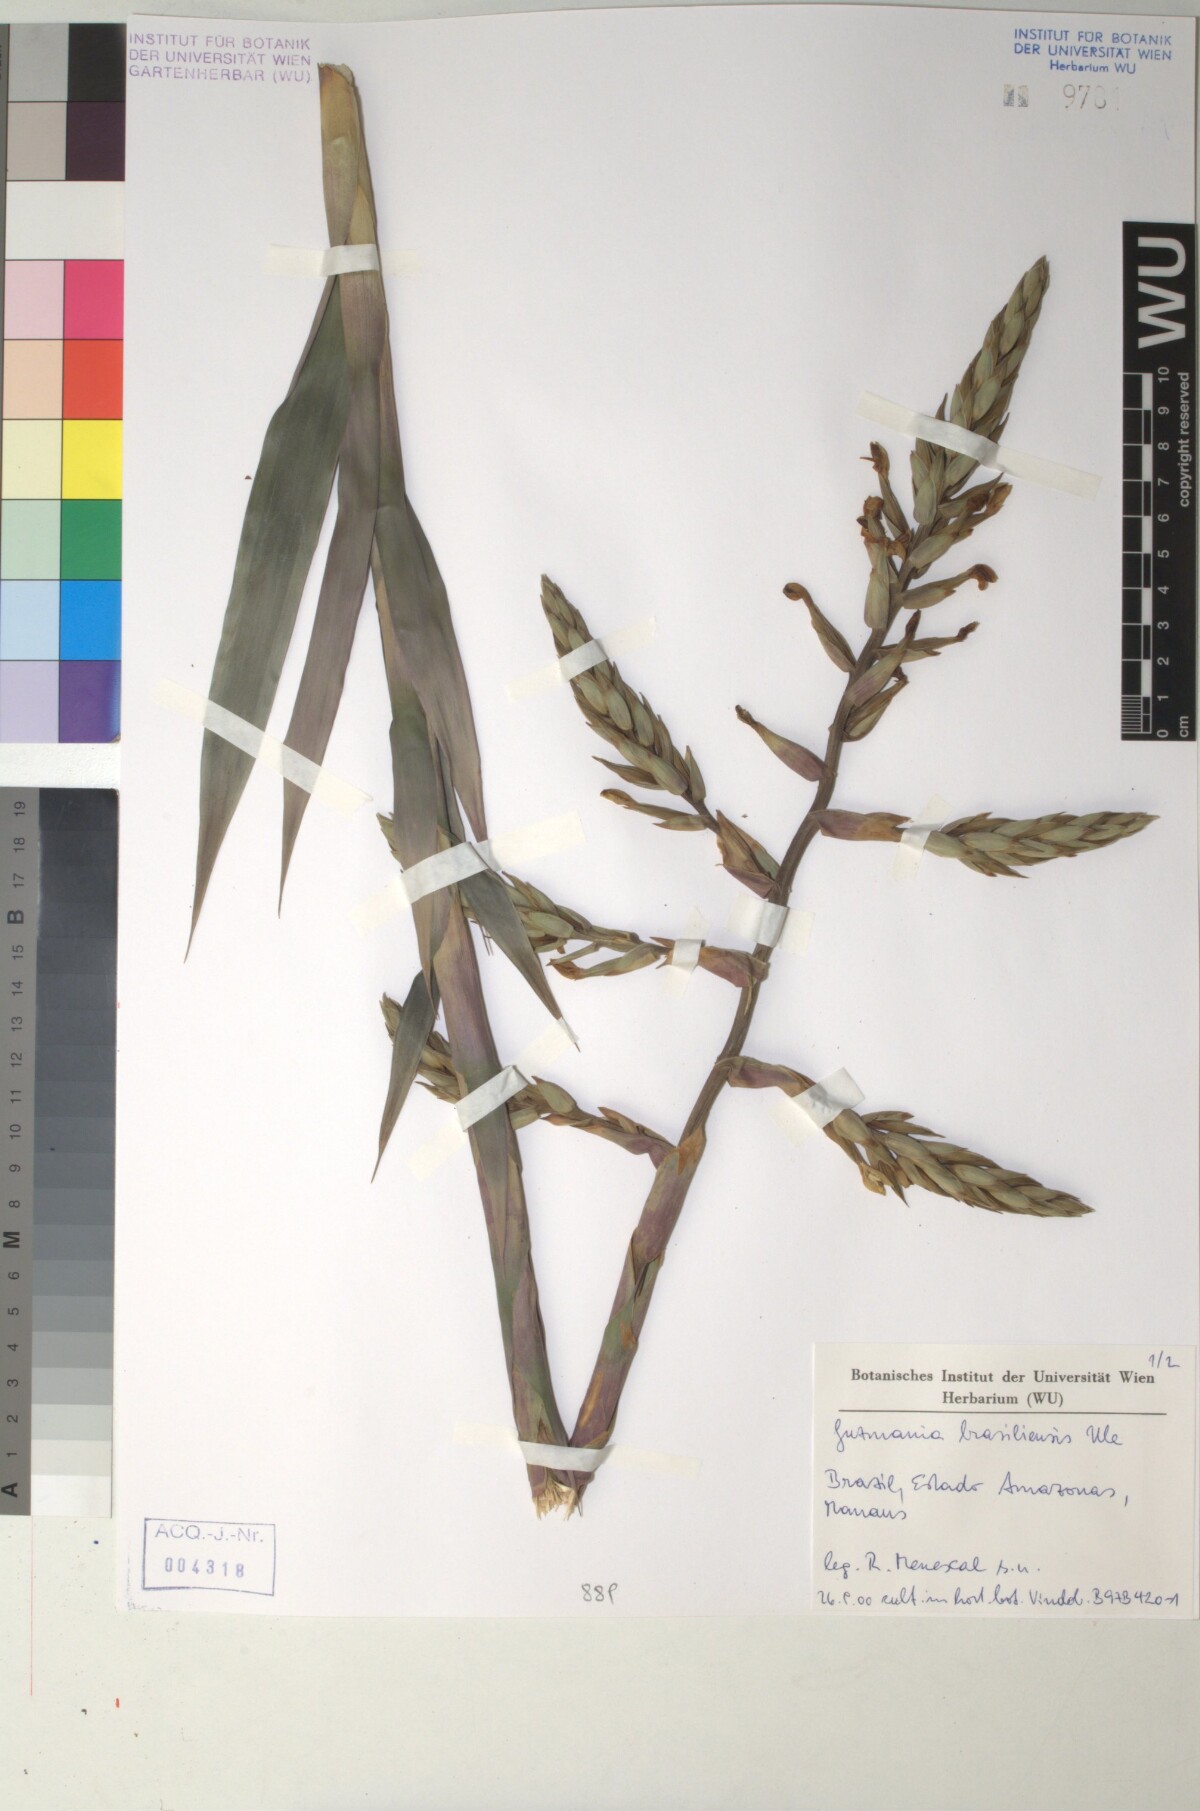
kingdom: Plantae
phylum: Tracheophyta
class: Liliopsida
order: Poales
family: Bromeliaceae
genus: Guzmania
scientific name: Guzmania brasiliensis
